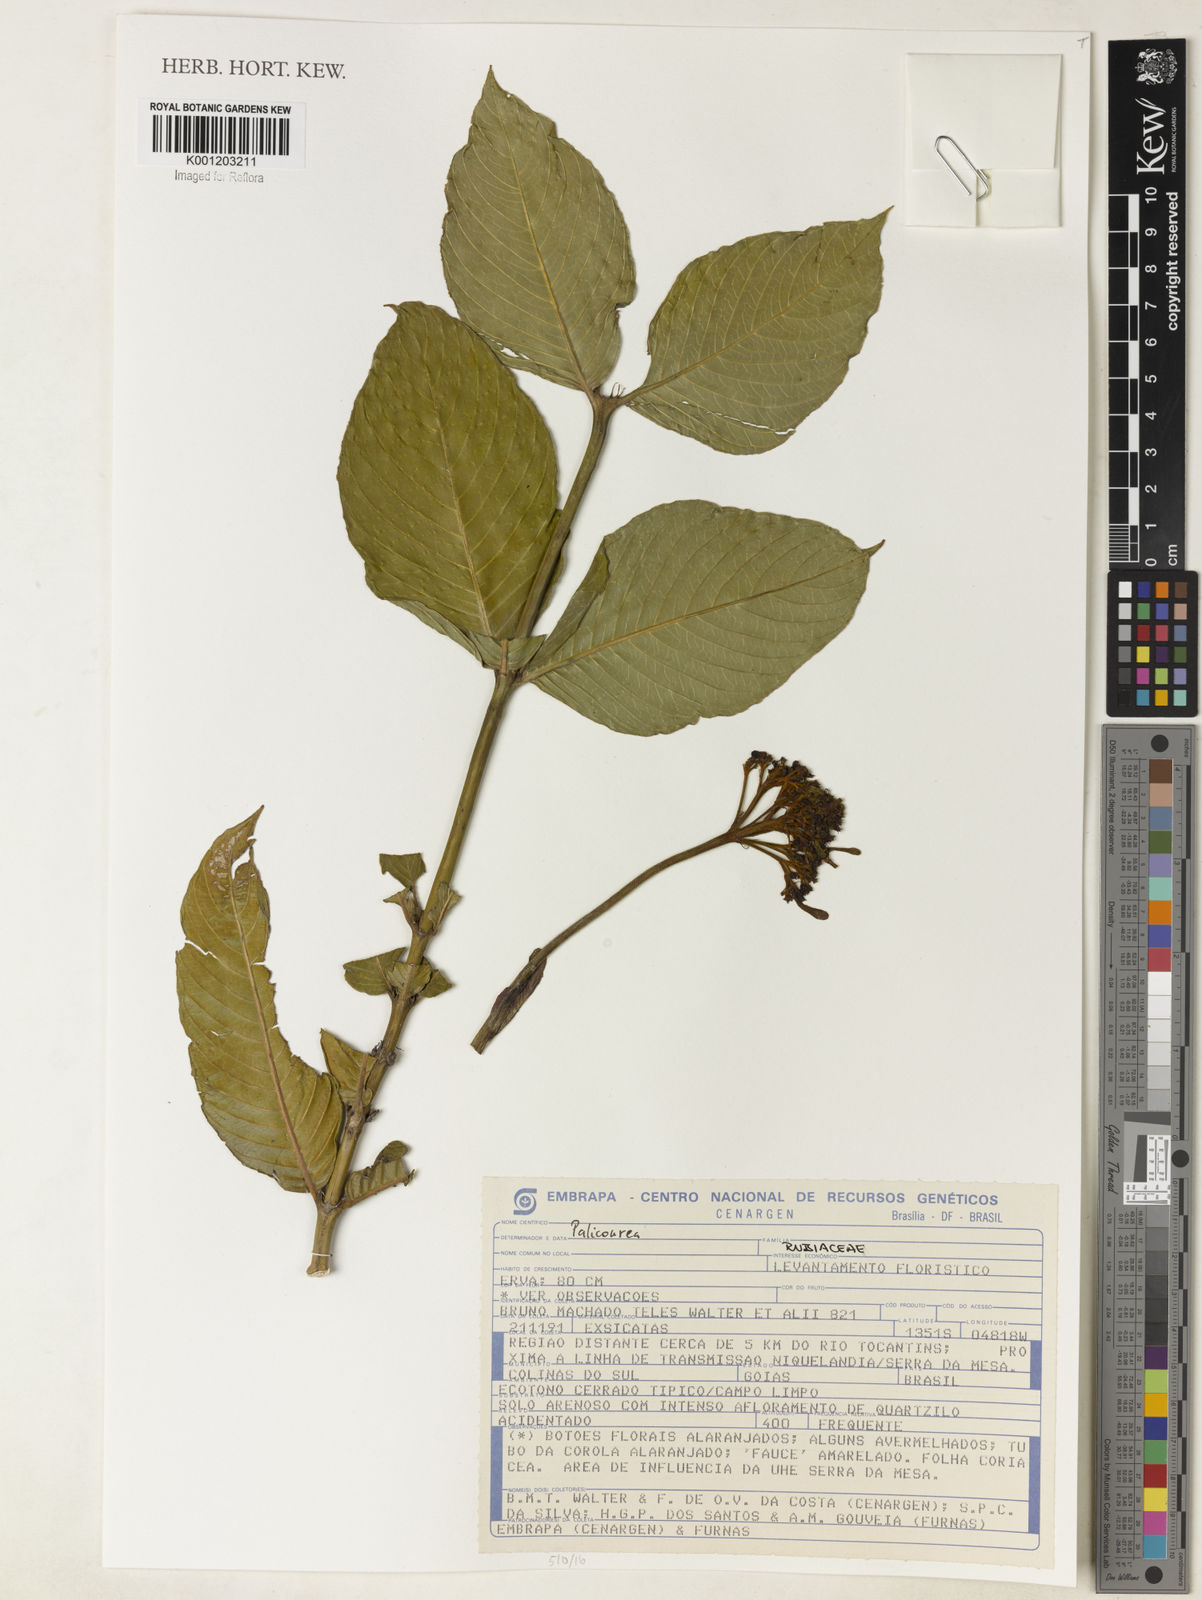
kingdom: Plantae
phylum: Tracheophyta
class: Magnoliopsida
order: Gentianales
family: Rubiaceae
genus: Palicourea
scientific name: Palicourea
